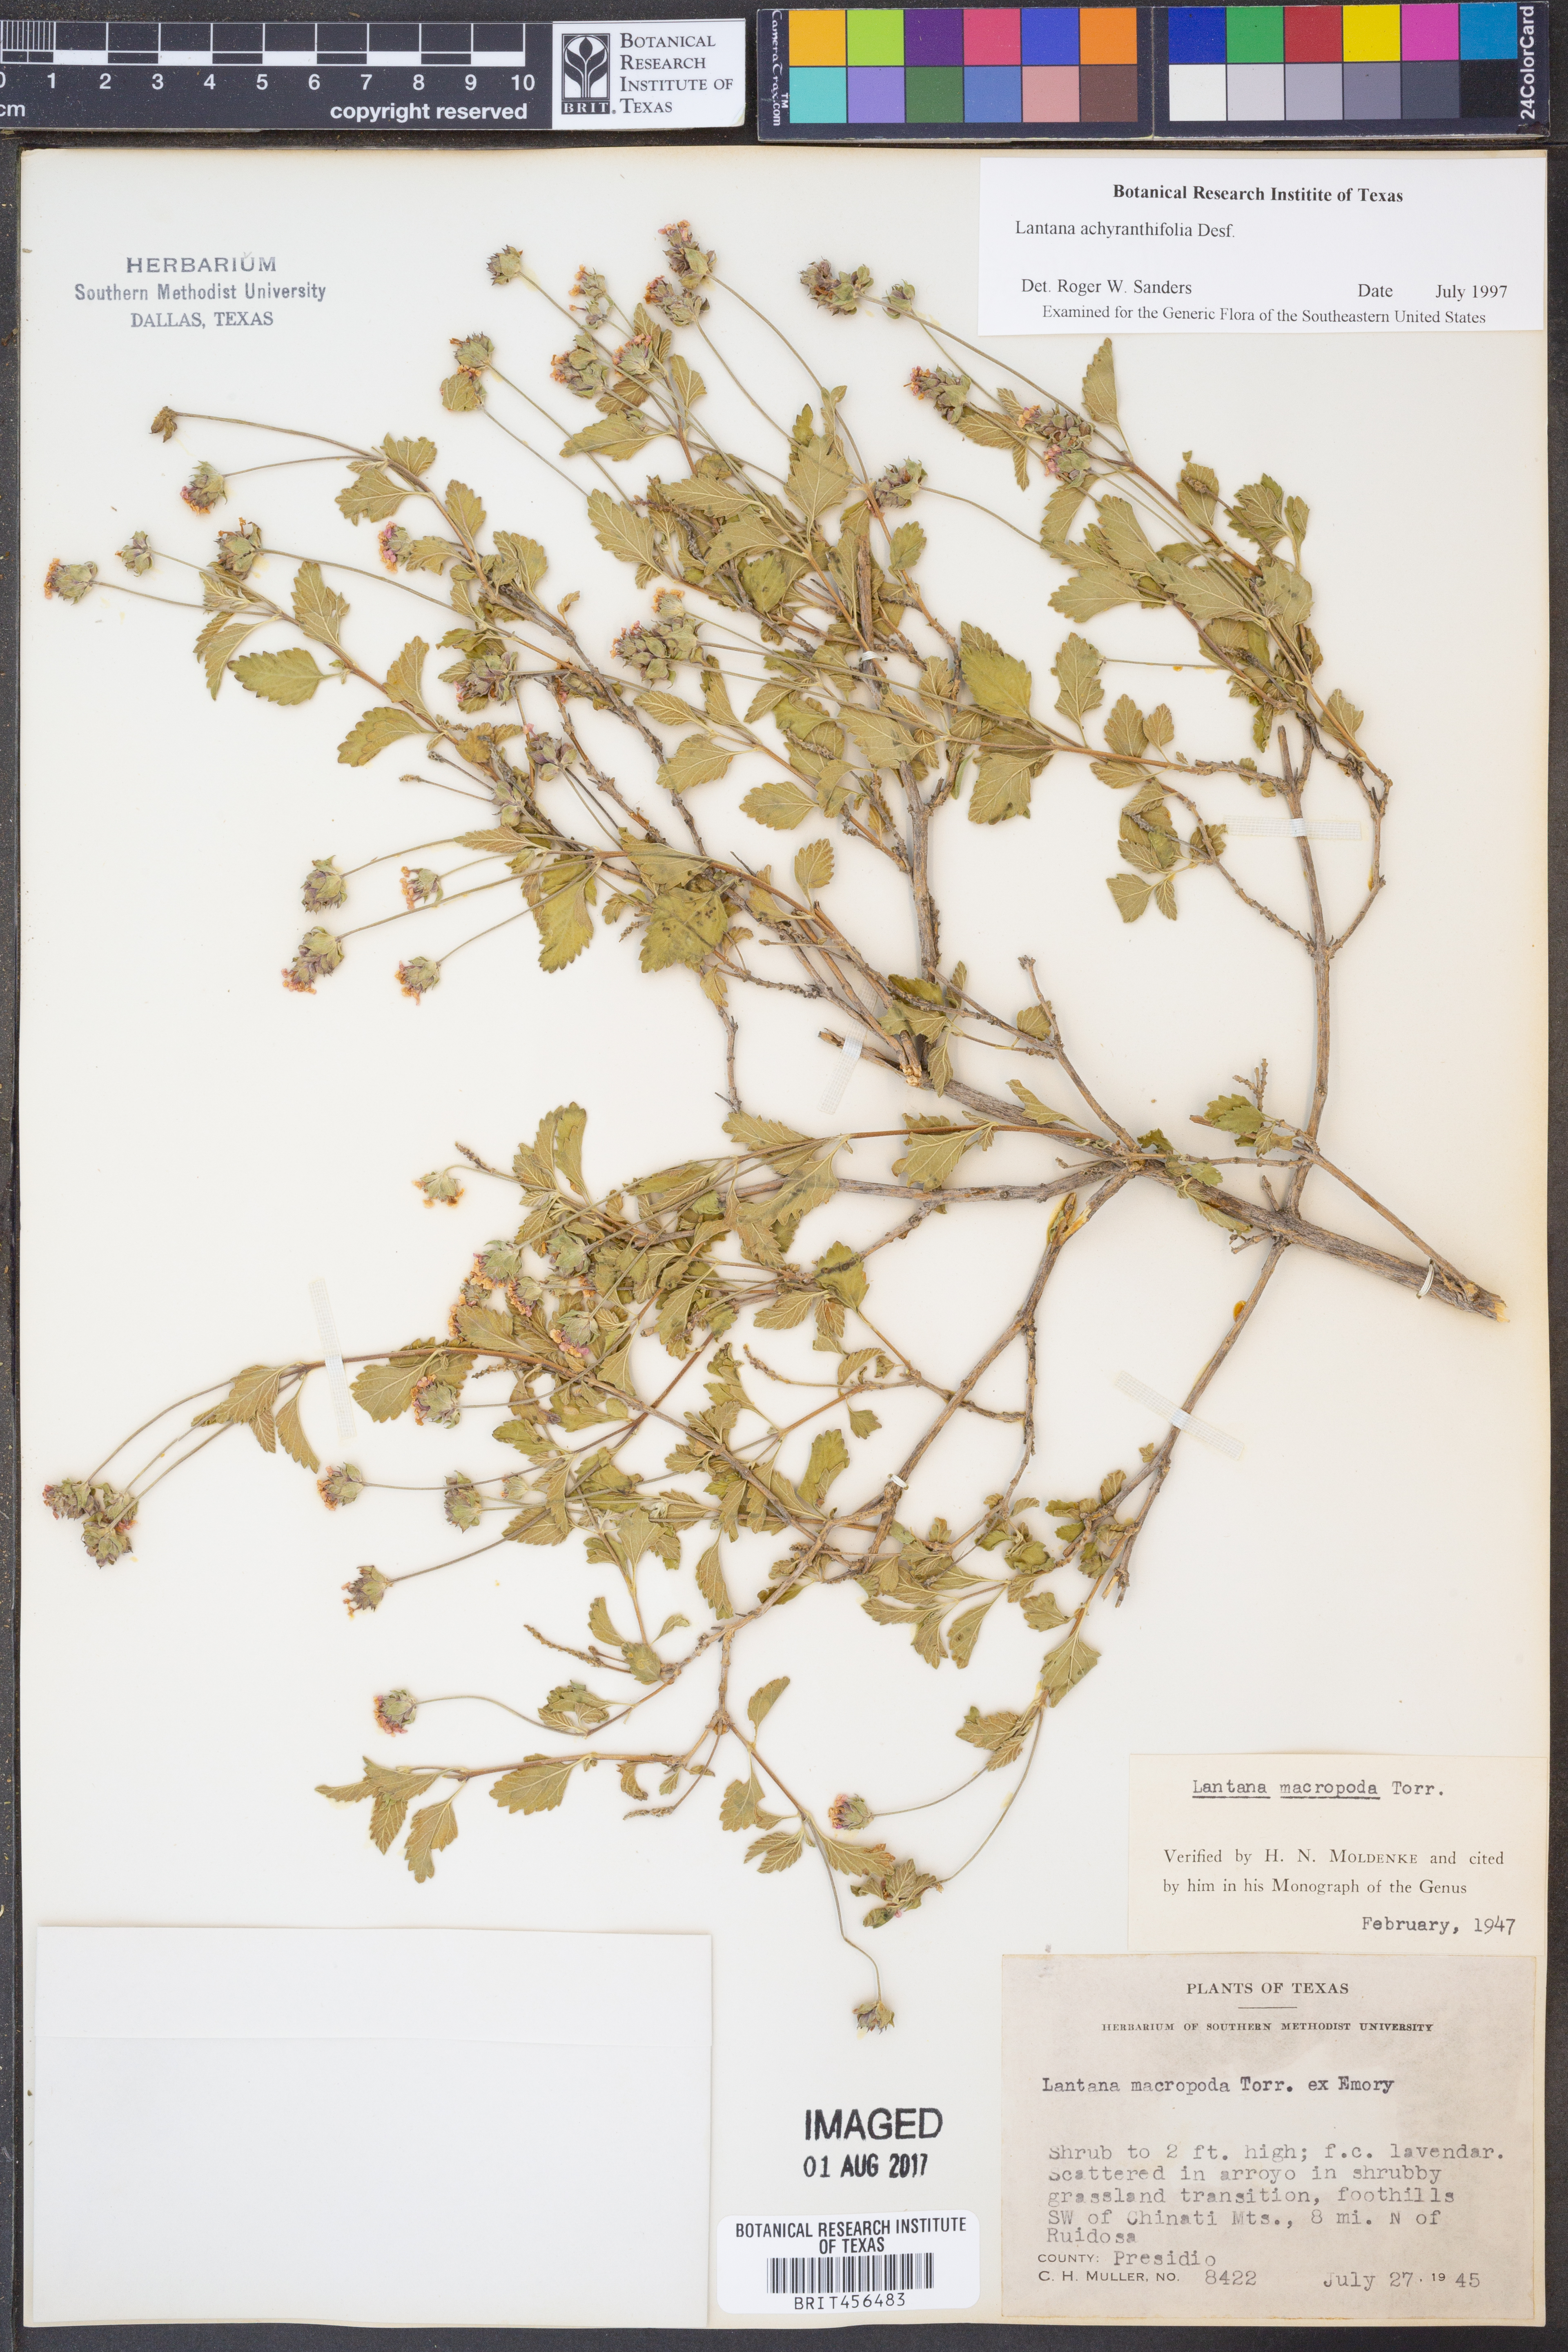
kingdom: Plantae
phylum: Tracheophyta
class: Magnoliopsida
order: Lamiales
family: Verbenaceae
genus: Lantana
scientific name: Lantana achyranthifolia
